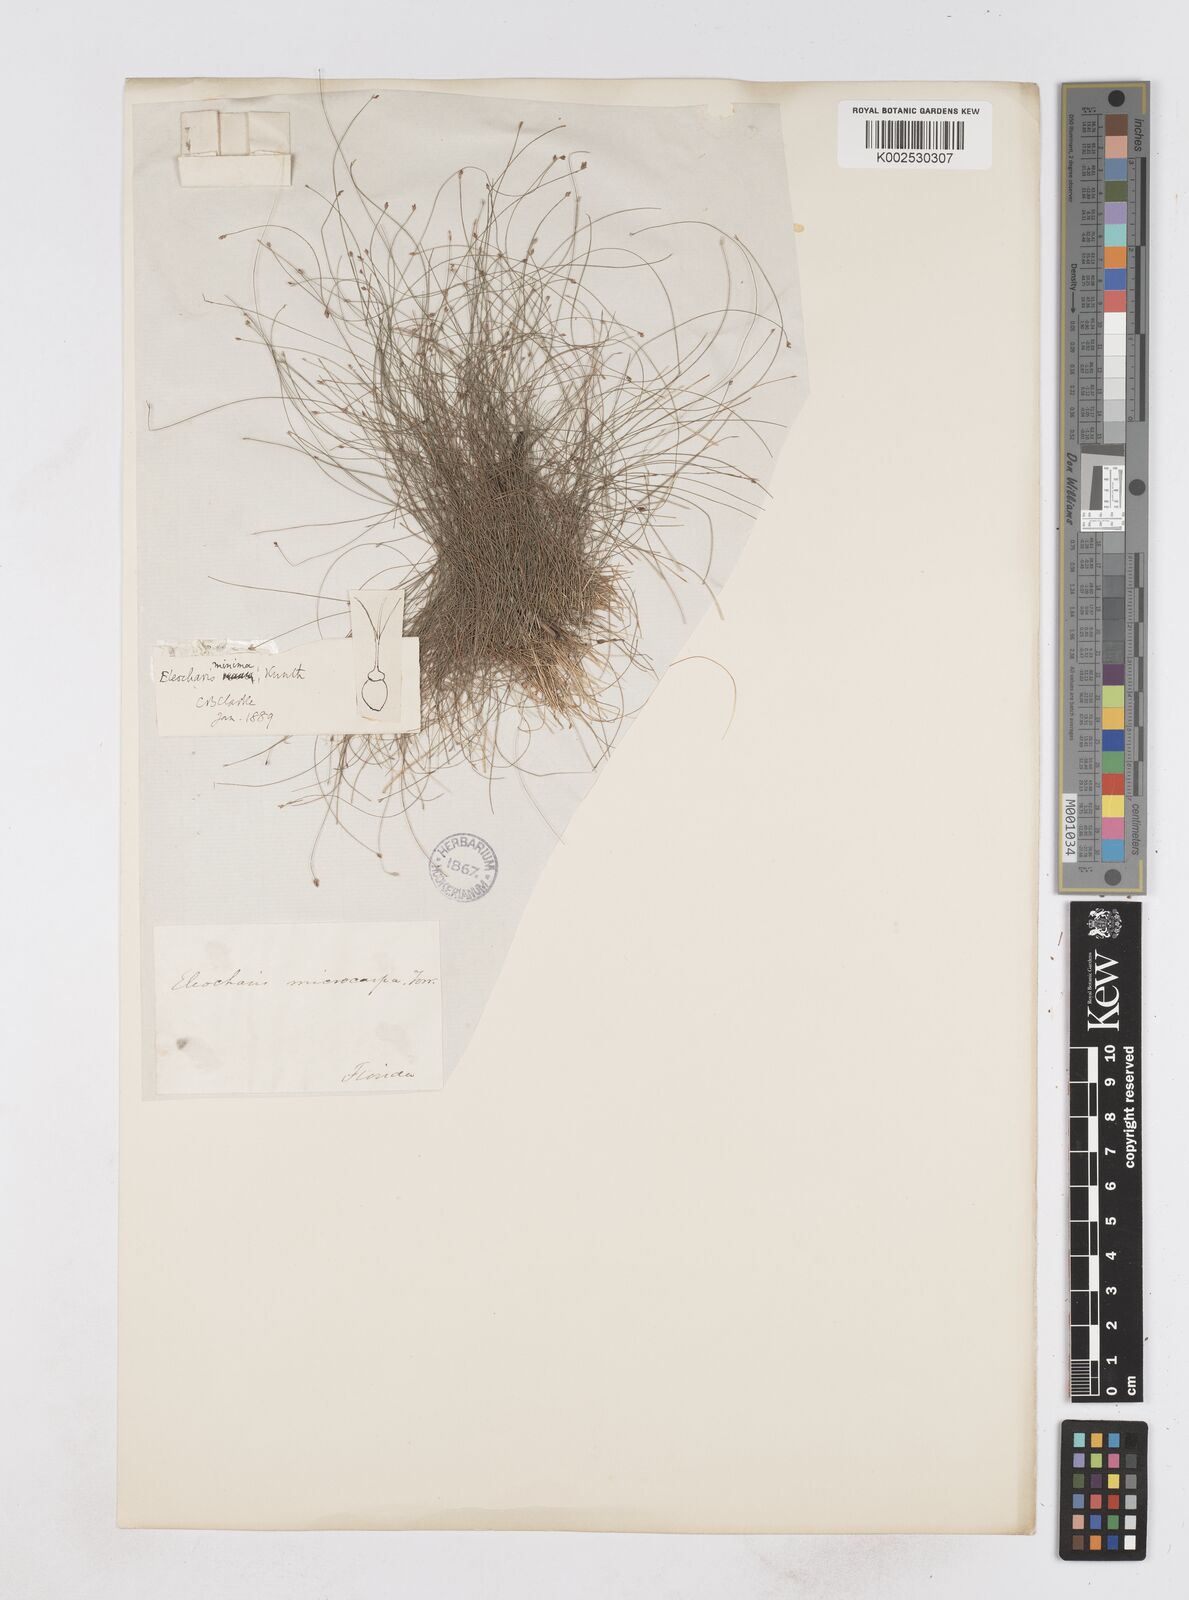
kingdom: Plantae
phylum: Tracheophyta
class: Liliopsida
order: Poales
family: Cyperaceae
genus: Eleocharis
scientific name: Eleocharis minima
